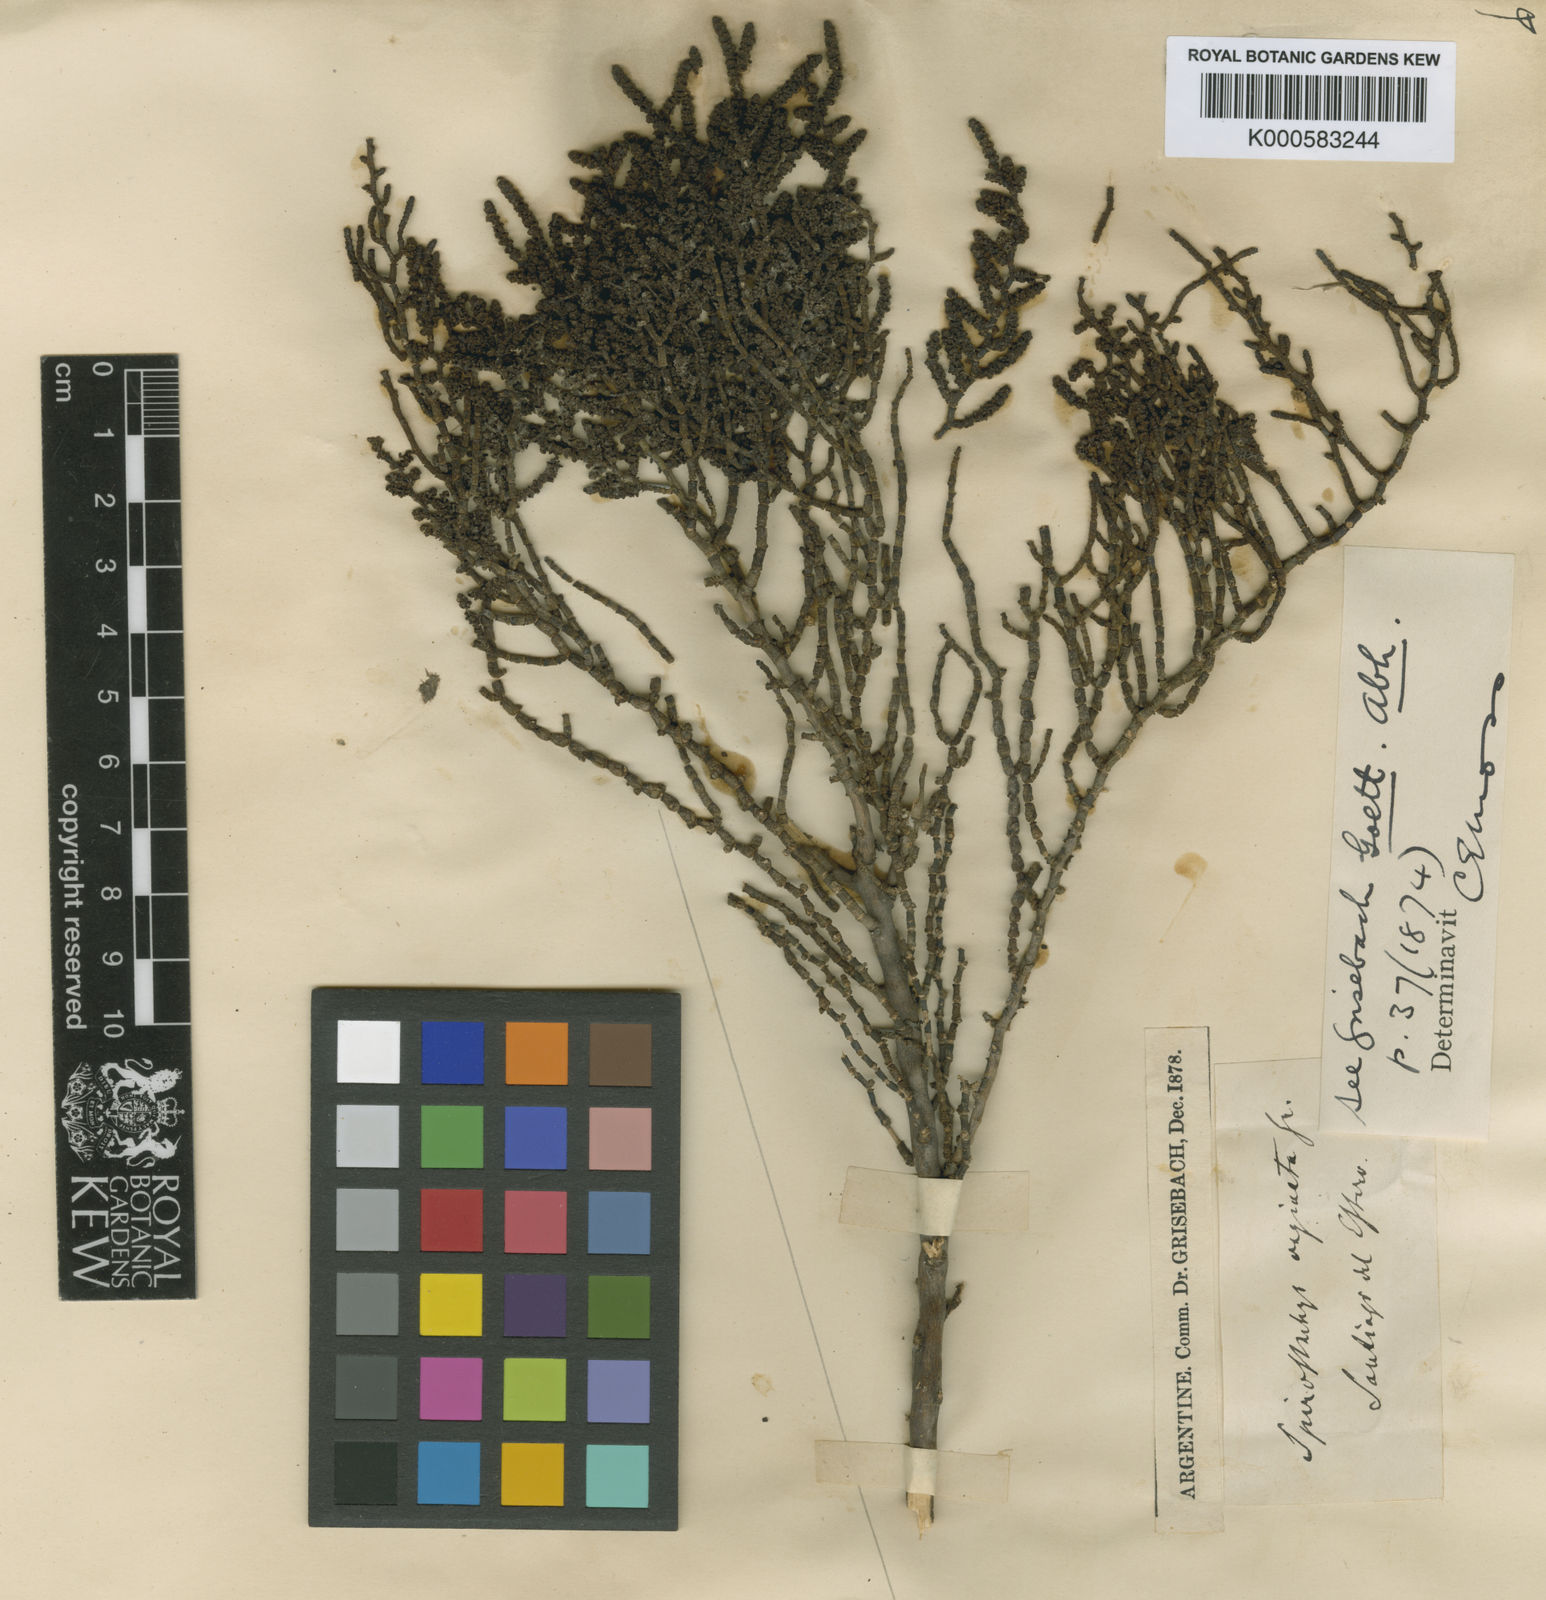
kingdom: Plantae
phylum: Tracheophyta
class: Magnoliopsida
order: Caryophyllales
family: Amaranthaceae
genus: Allenrolfea
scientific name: Allenrolfea vaginata
